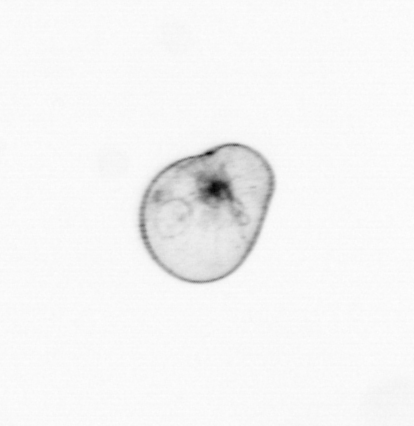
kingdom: Chromista
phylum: Myzozoa
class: Dinophyceae
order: Noctilucales
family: Noctilucaceae
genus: Noctiluca
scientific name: Noctiluca scintillans
